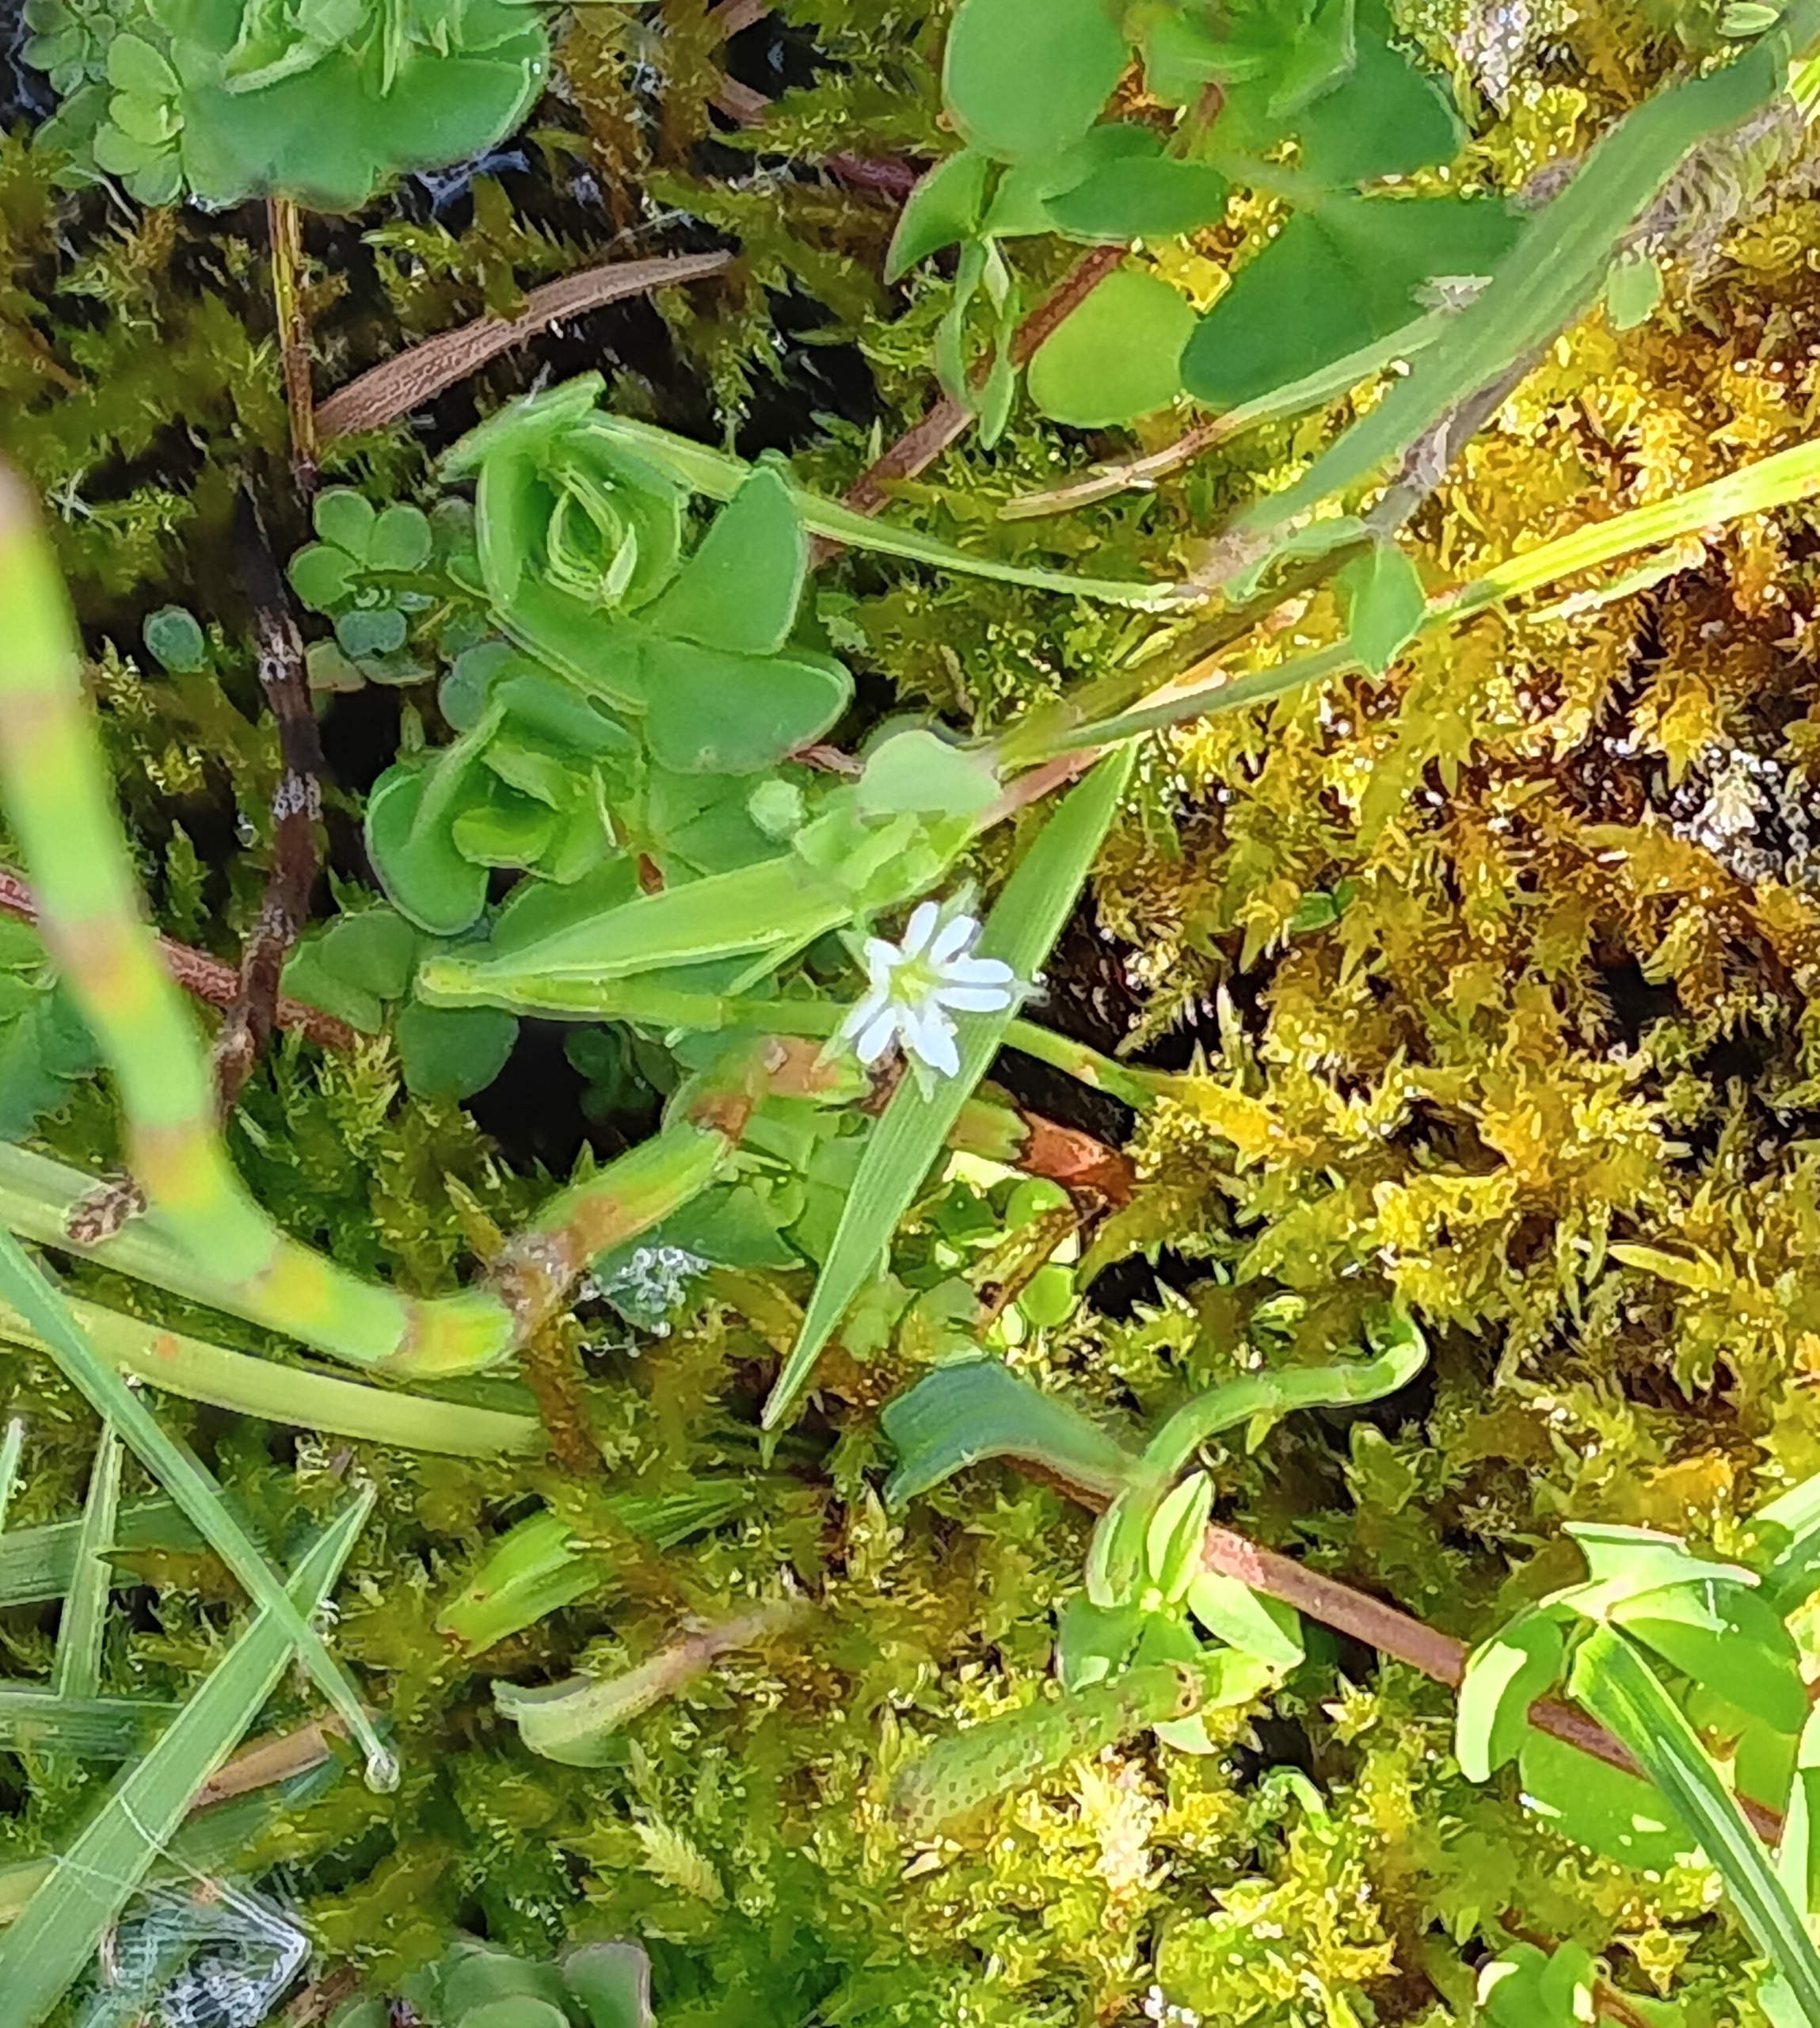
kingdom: Plantae
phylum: Tracheophyta
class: Magnoliopsida
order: Caryophyllales
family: Caryophyllaceae
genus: Stellaria
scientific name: Stellaria alsine
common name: Sump-fladstjerne
